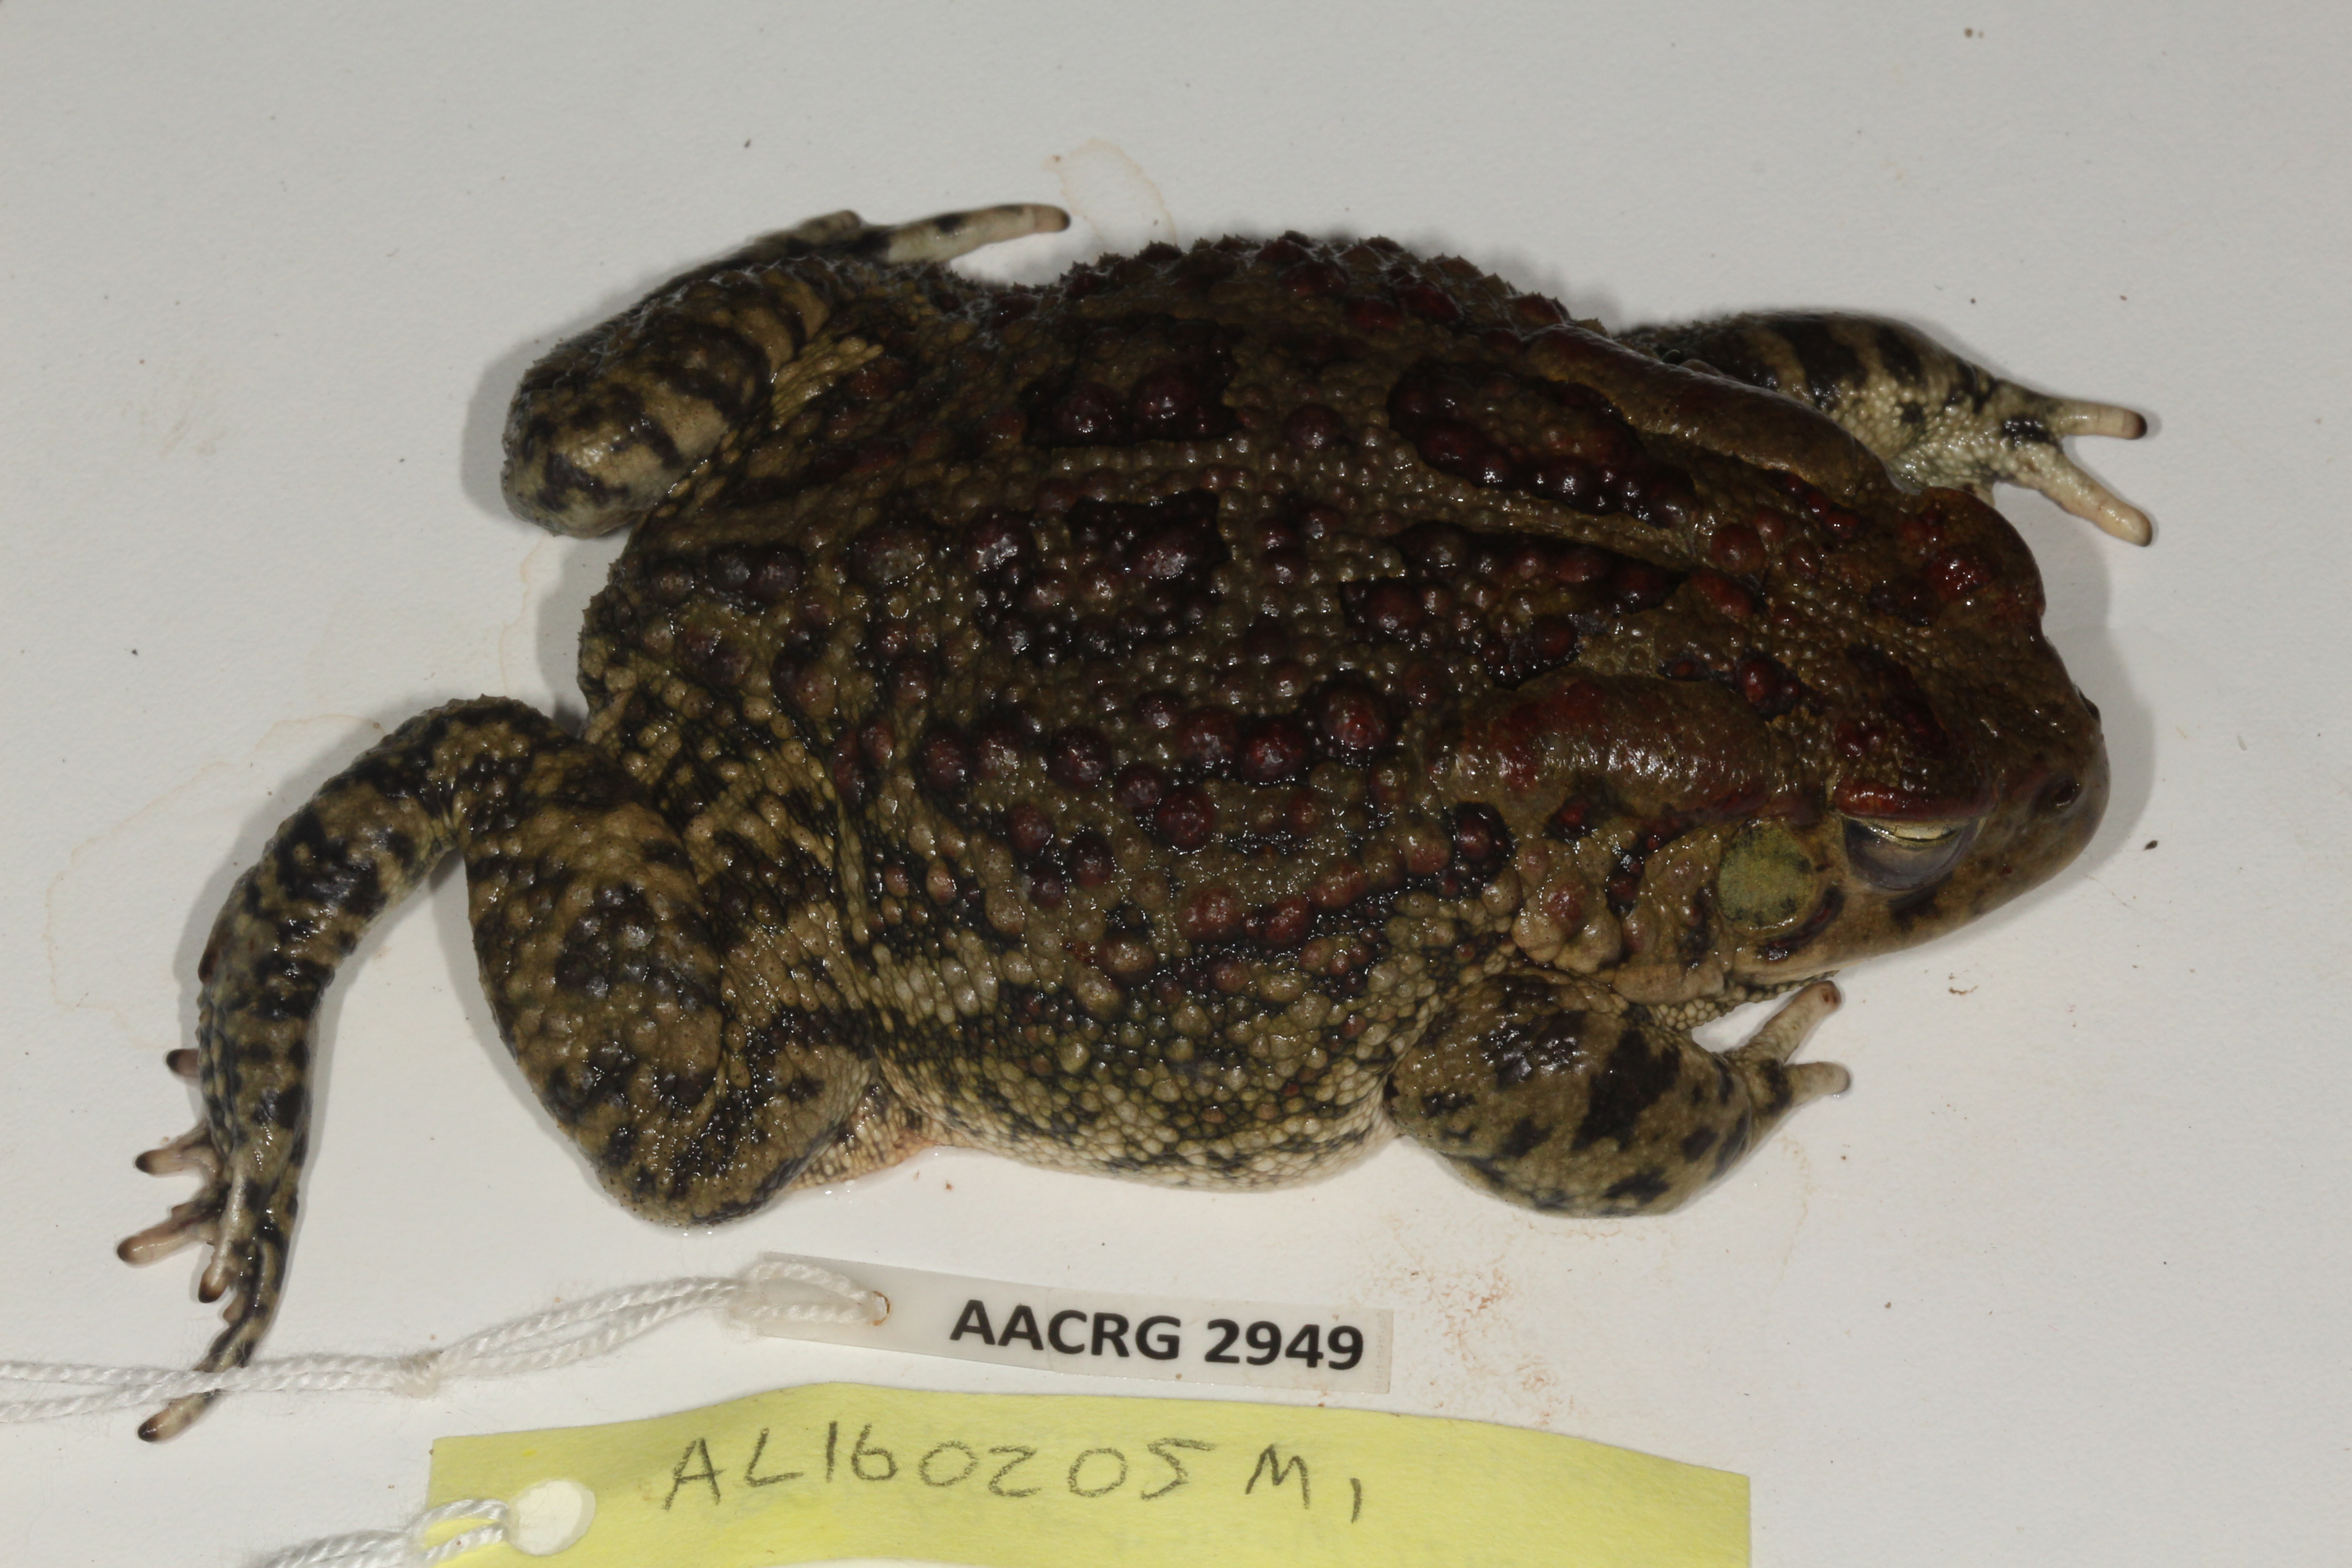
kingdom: Animalia
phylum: Chordata
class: Amphibia
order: Anura
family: Bufonidae
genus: Sclerophrys
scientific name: Sclerophrys garmani
